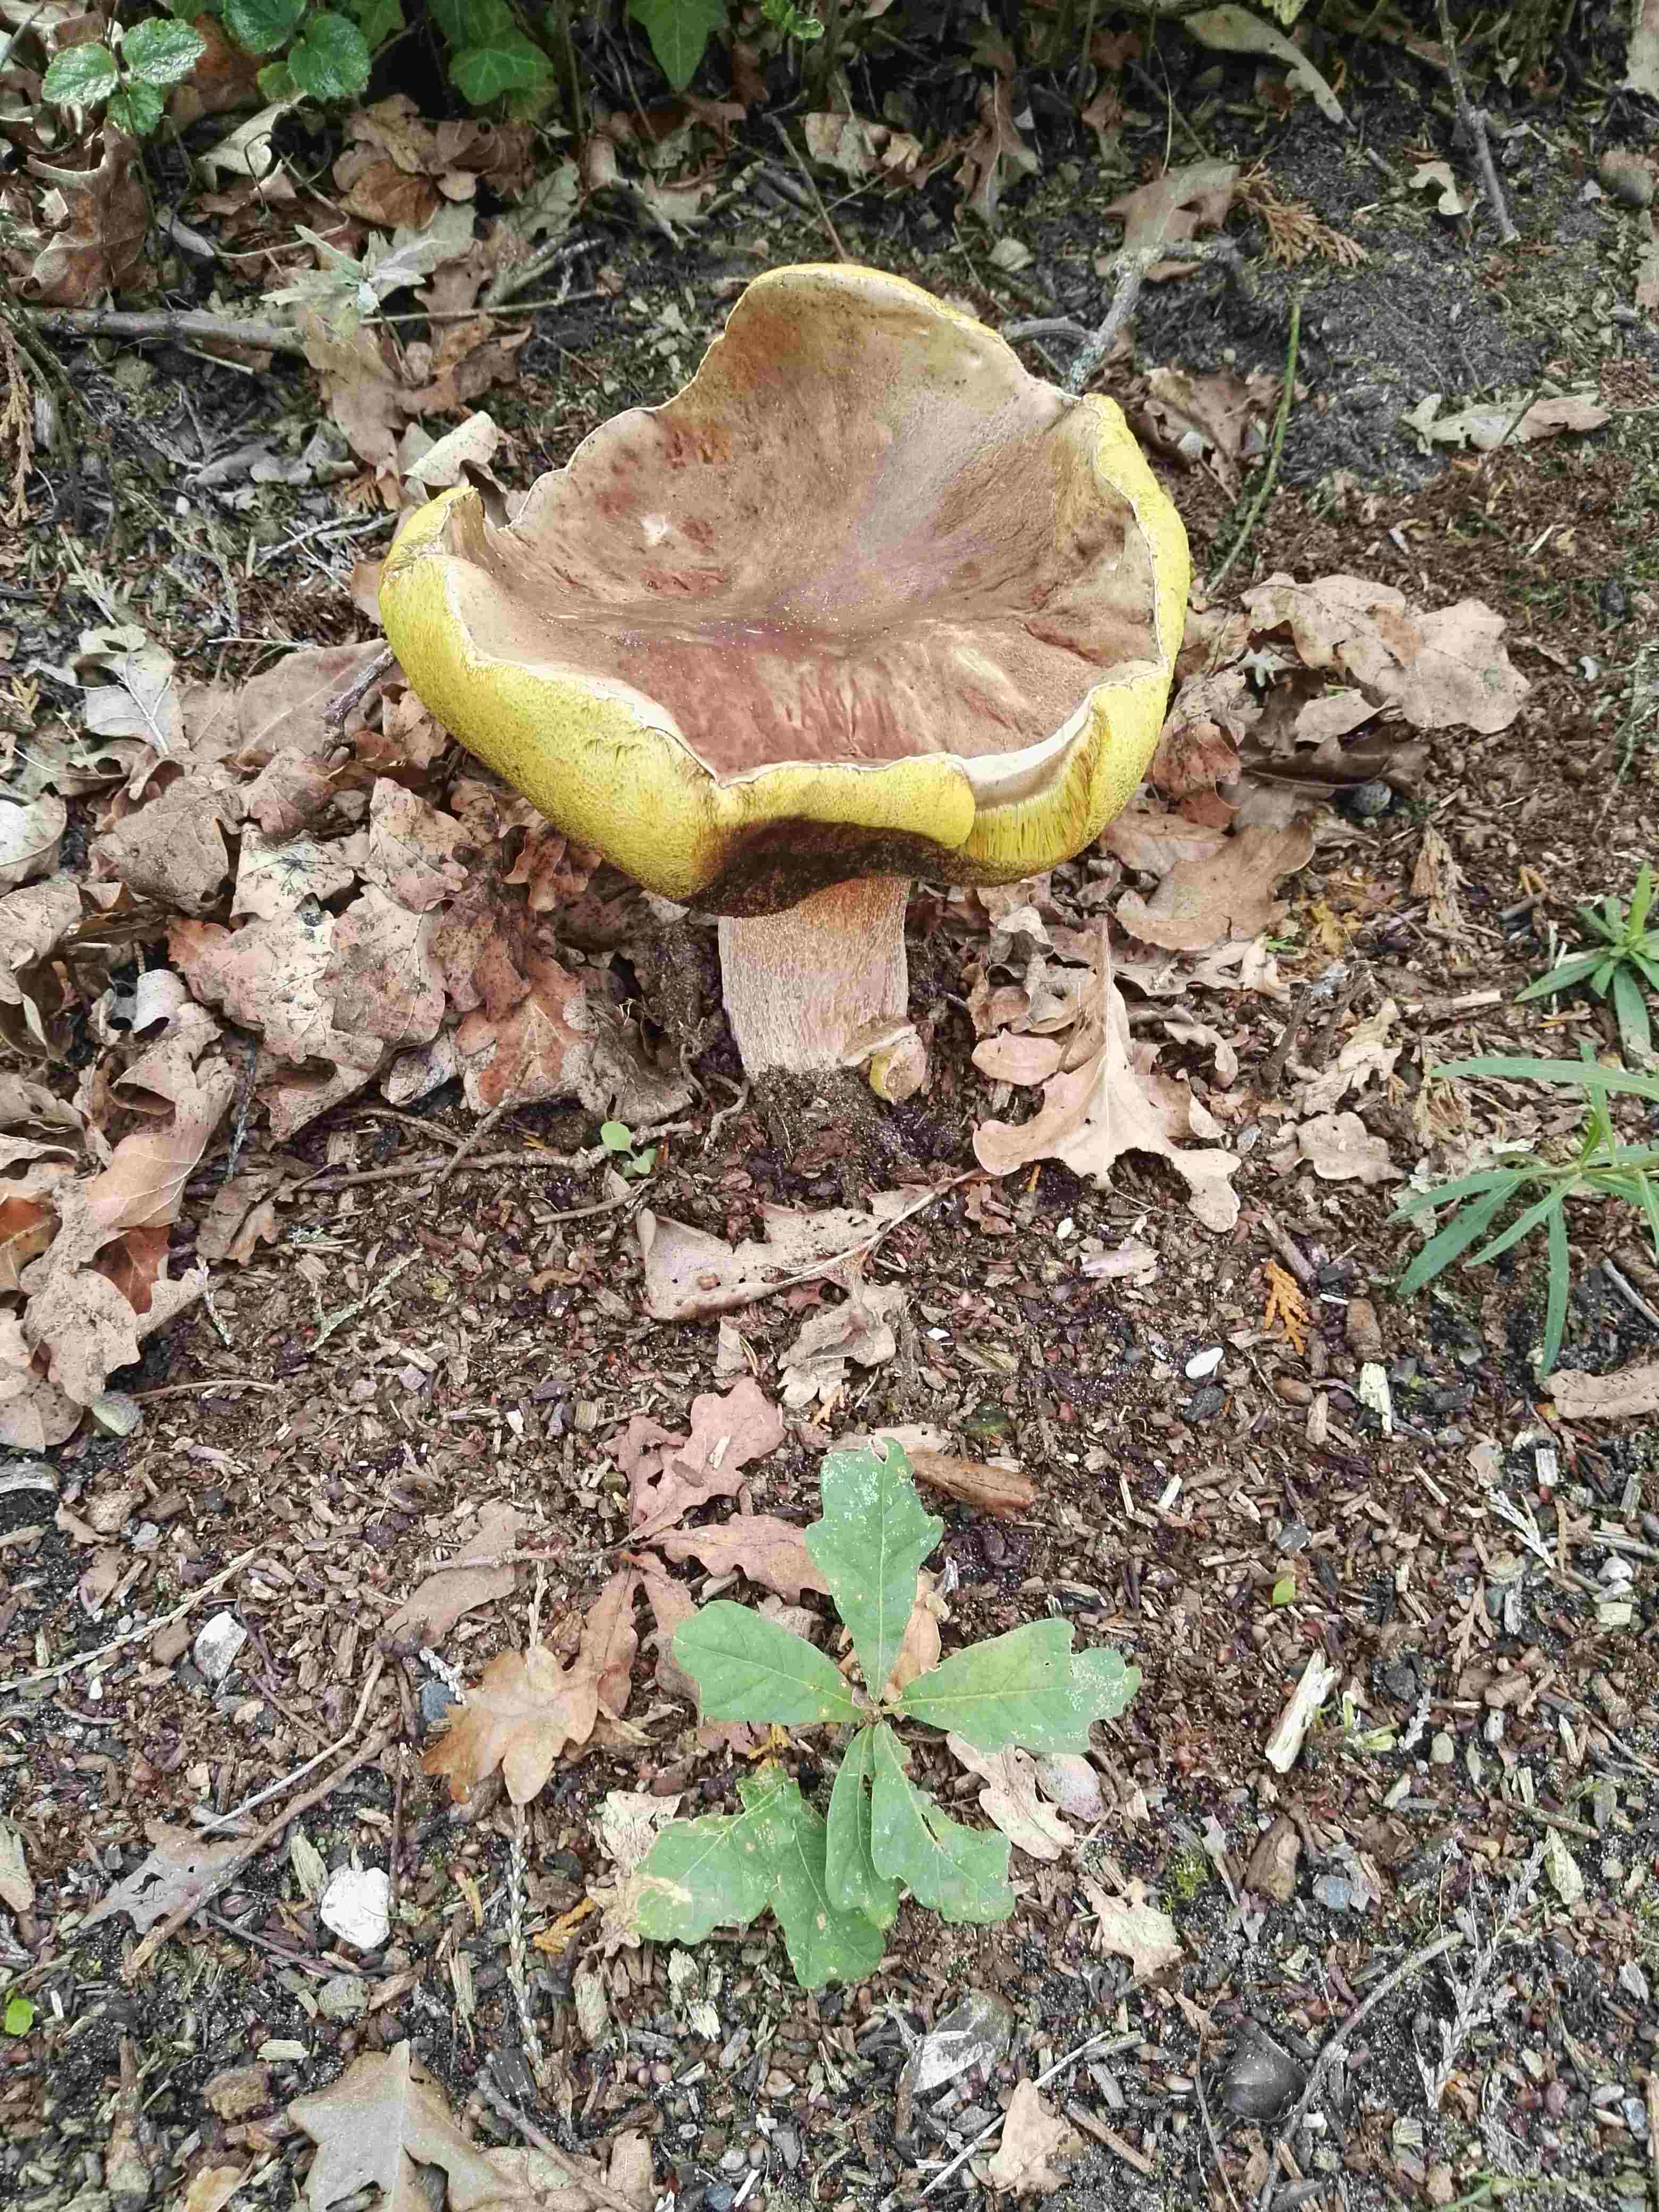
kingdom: Fungi
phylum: Basidiomycota
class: Agaricomycetes
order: Boletales
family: Boletaceae
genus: Boletus
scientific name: Boletus edulis
